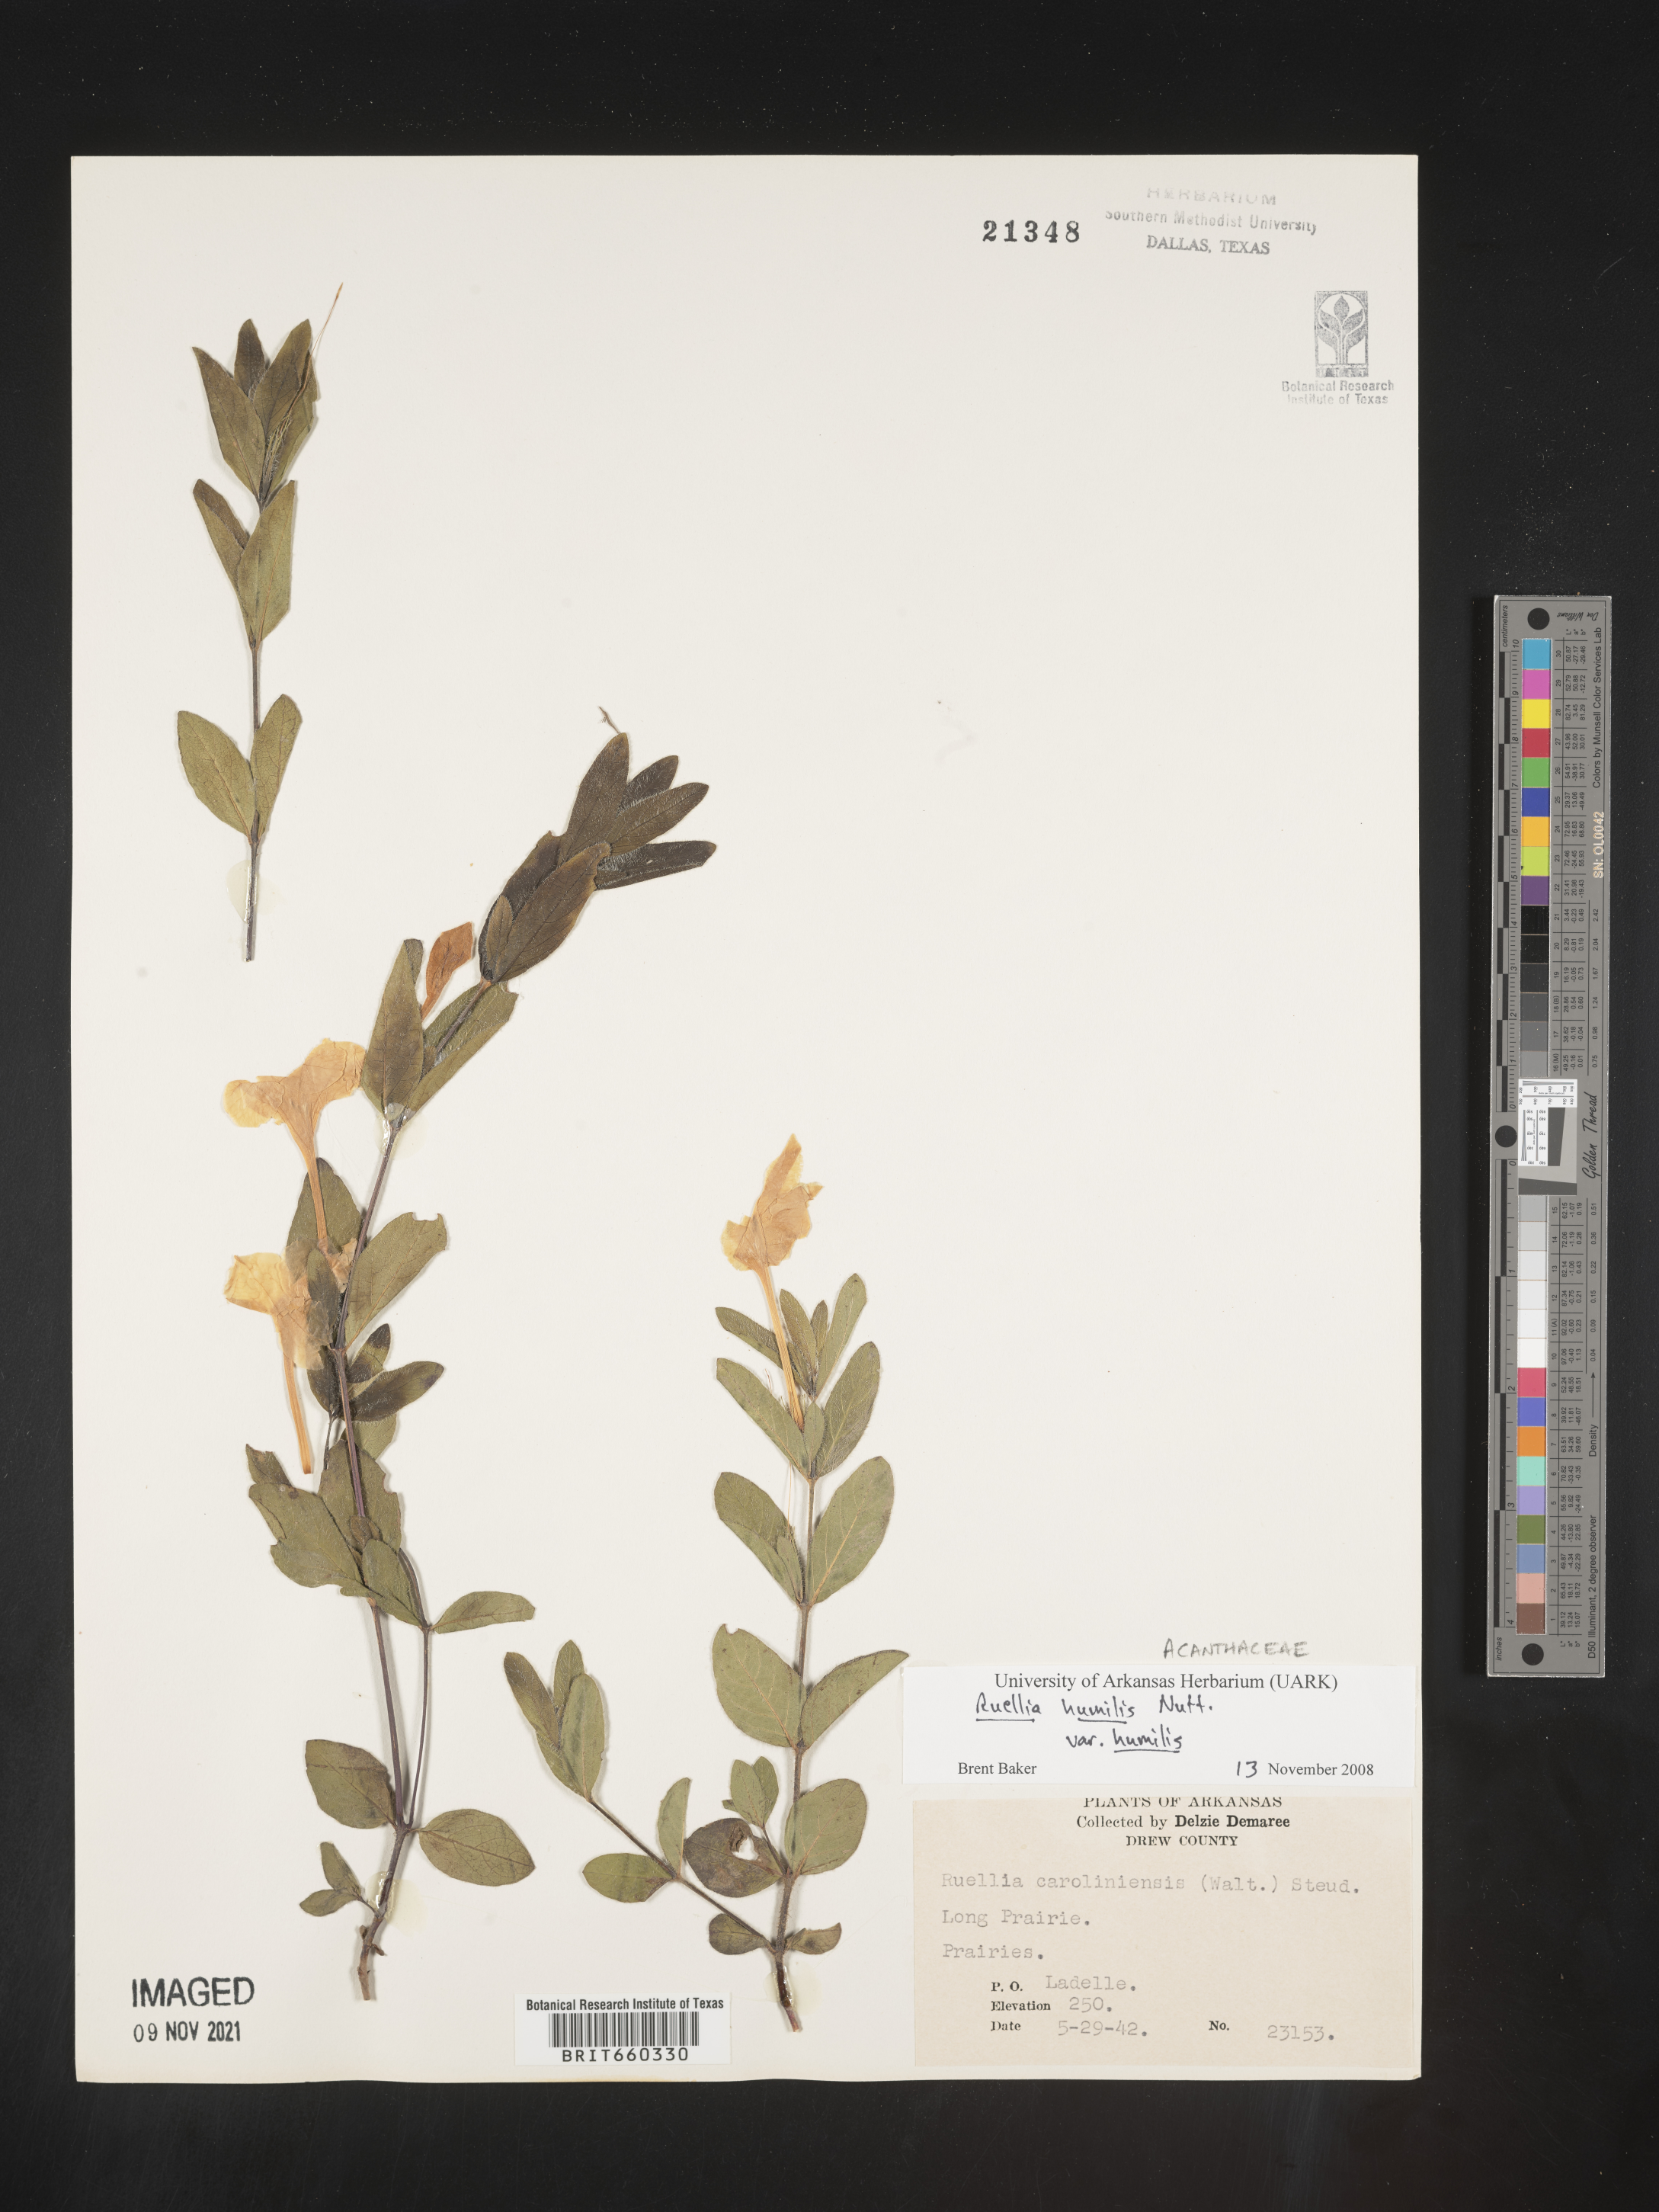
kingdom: Plantae
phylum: Tracheophyta
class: Magnoliopsida
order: Lamiales
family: Acanthaceae
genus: Ruellia
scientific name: Ruellia humilis
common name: Fringe-leaf ruellia
